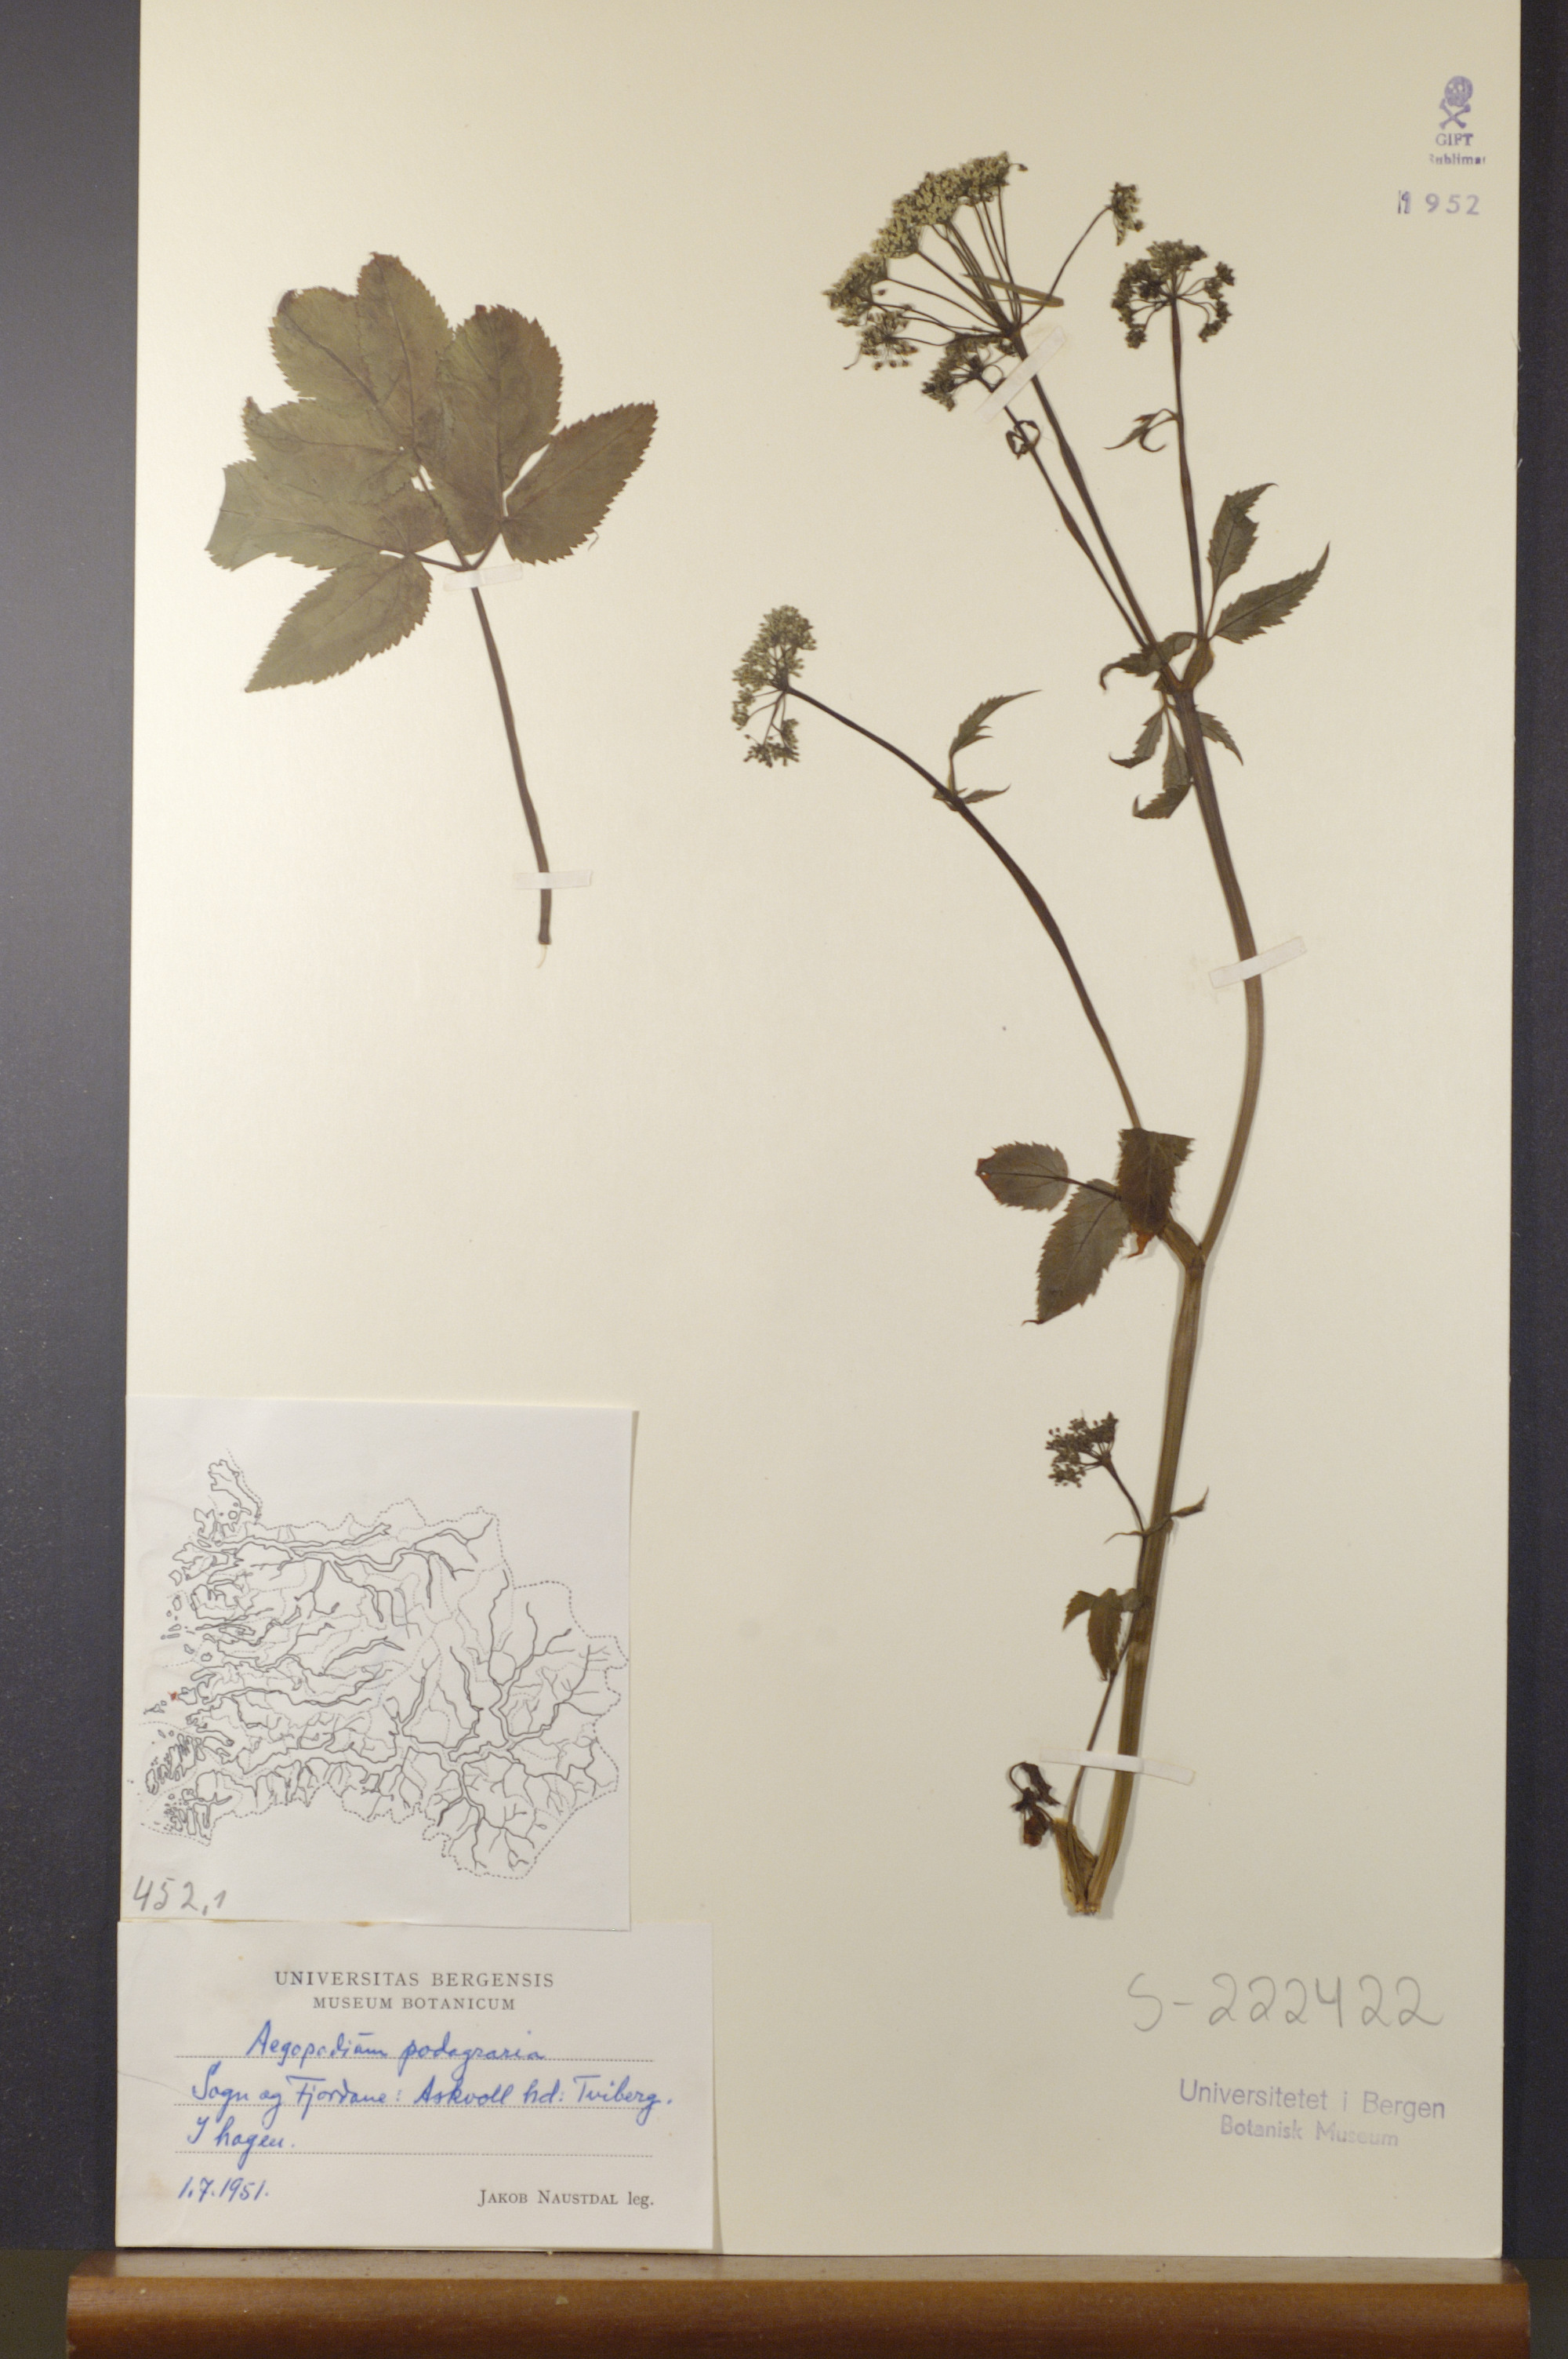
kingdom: Plantae
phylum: Tracheophyta
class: Magnoliopsida
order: Apiales
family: Apiaceae
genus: Aegopodium
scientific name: Aegopodium podagraria
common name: Ground-elder
